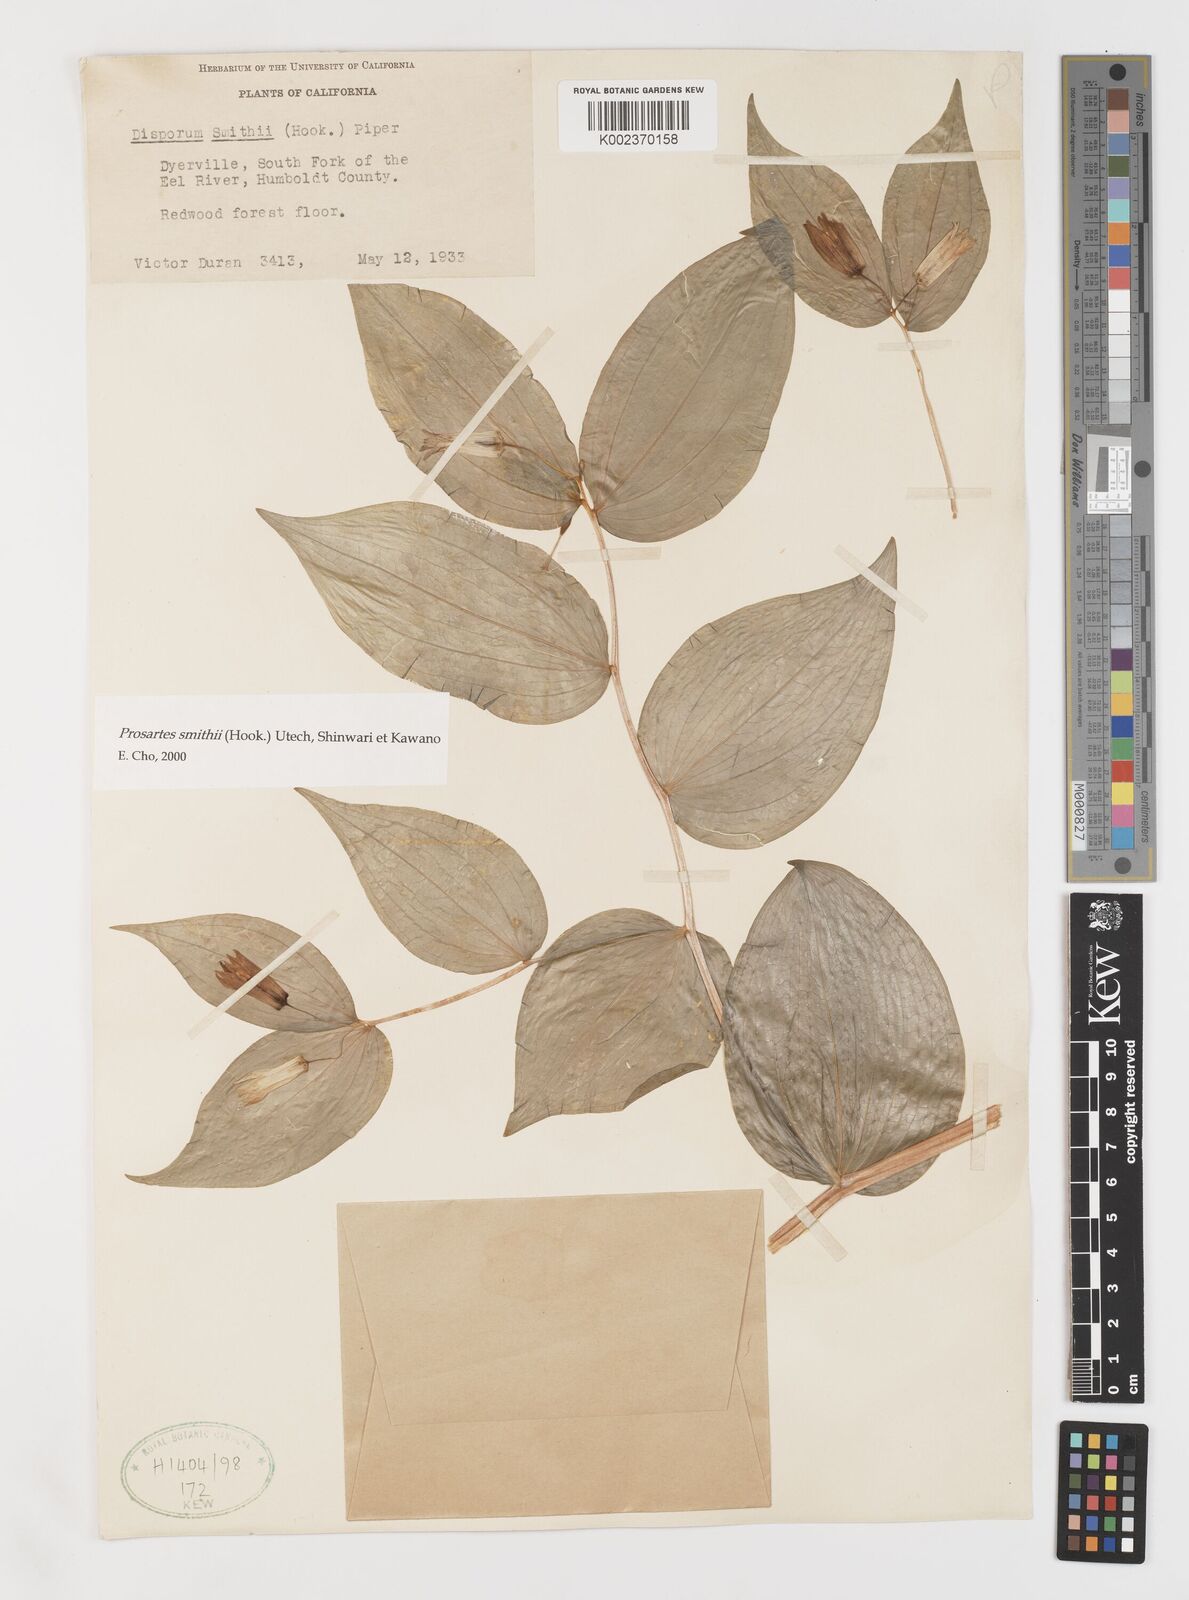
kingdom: Plantae
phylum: Tracheophyta
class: Liliopsida
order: Liliales
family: Liliaceae
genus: Prosartes
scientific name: Prosartes smithii
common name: Fairy-lantern
